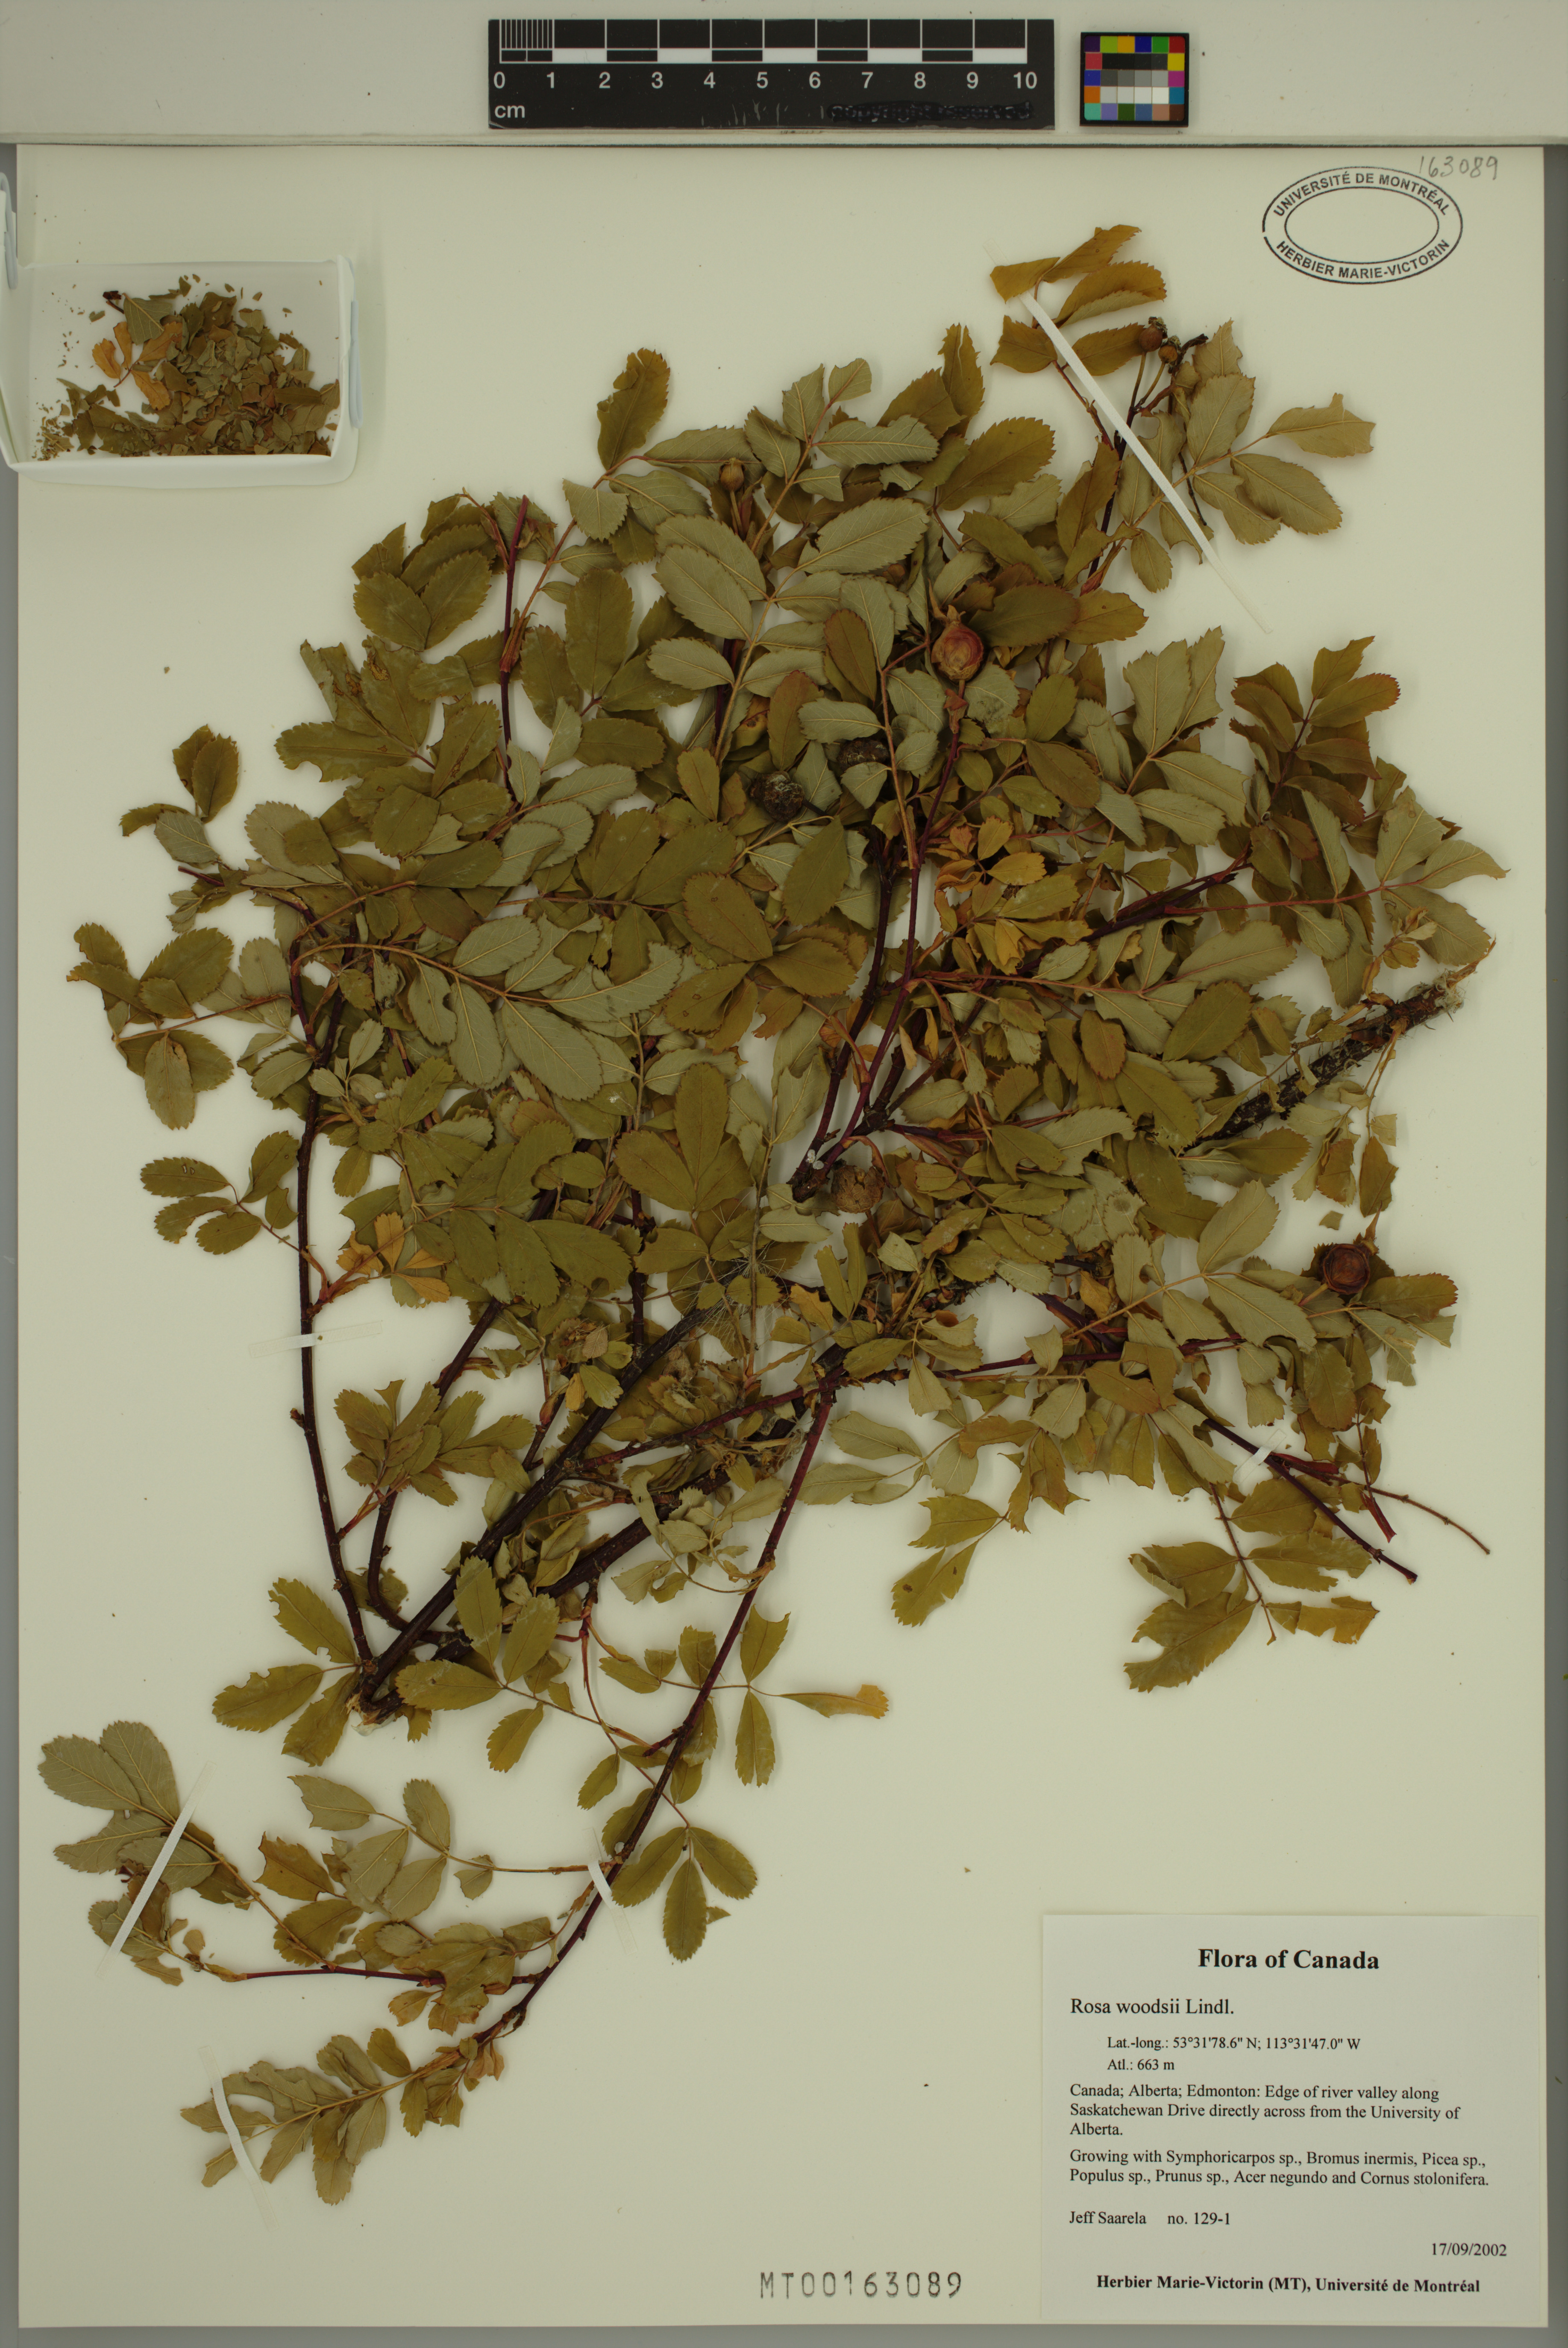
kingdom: Plantae
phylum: Tracheophyta
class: Magnoliopsida
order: Rosales
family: Rosaceae
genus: Rosa
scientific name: Rosa woodsii
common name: Woods's rose
